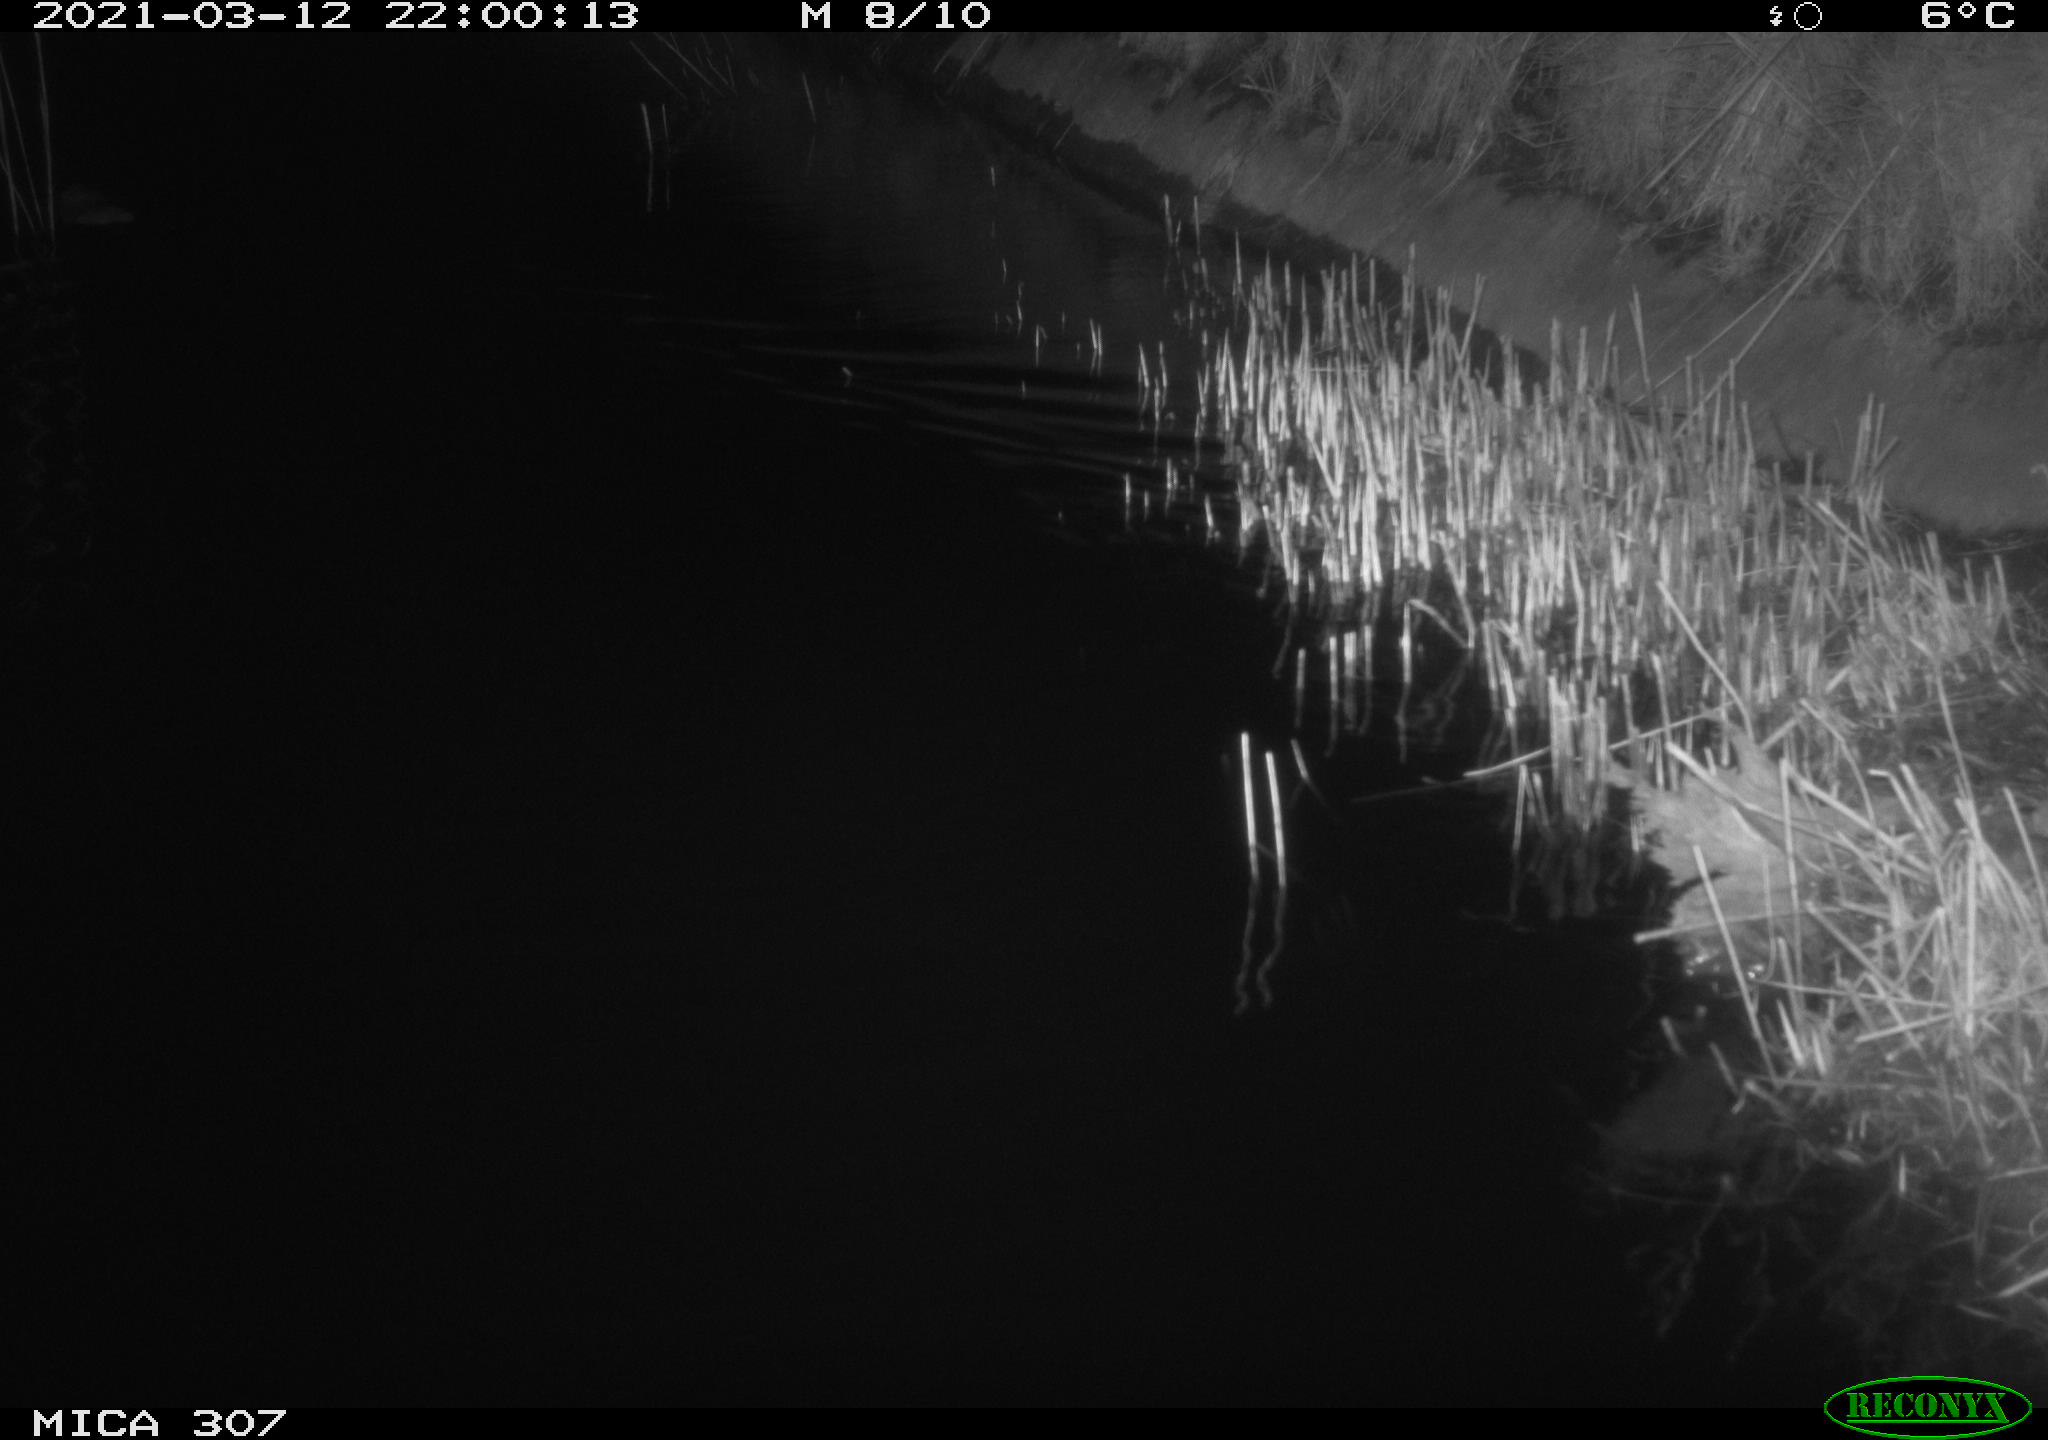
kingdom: Animalia
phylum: Chordata
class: Mammalia
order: Rodentia
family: Muridae
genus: Rattus
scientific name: Rattus norvegicus
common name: Brown rat
